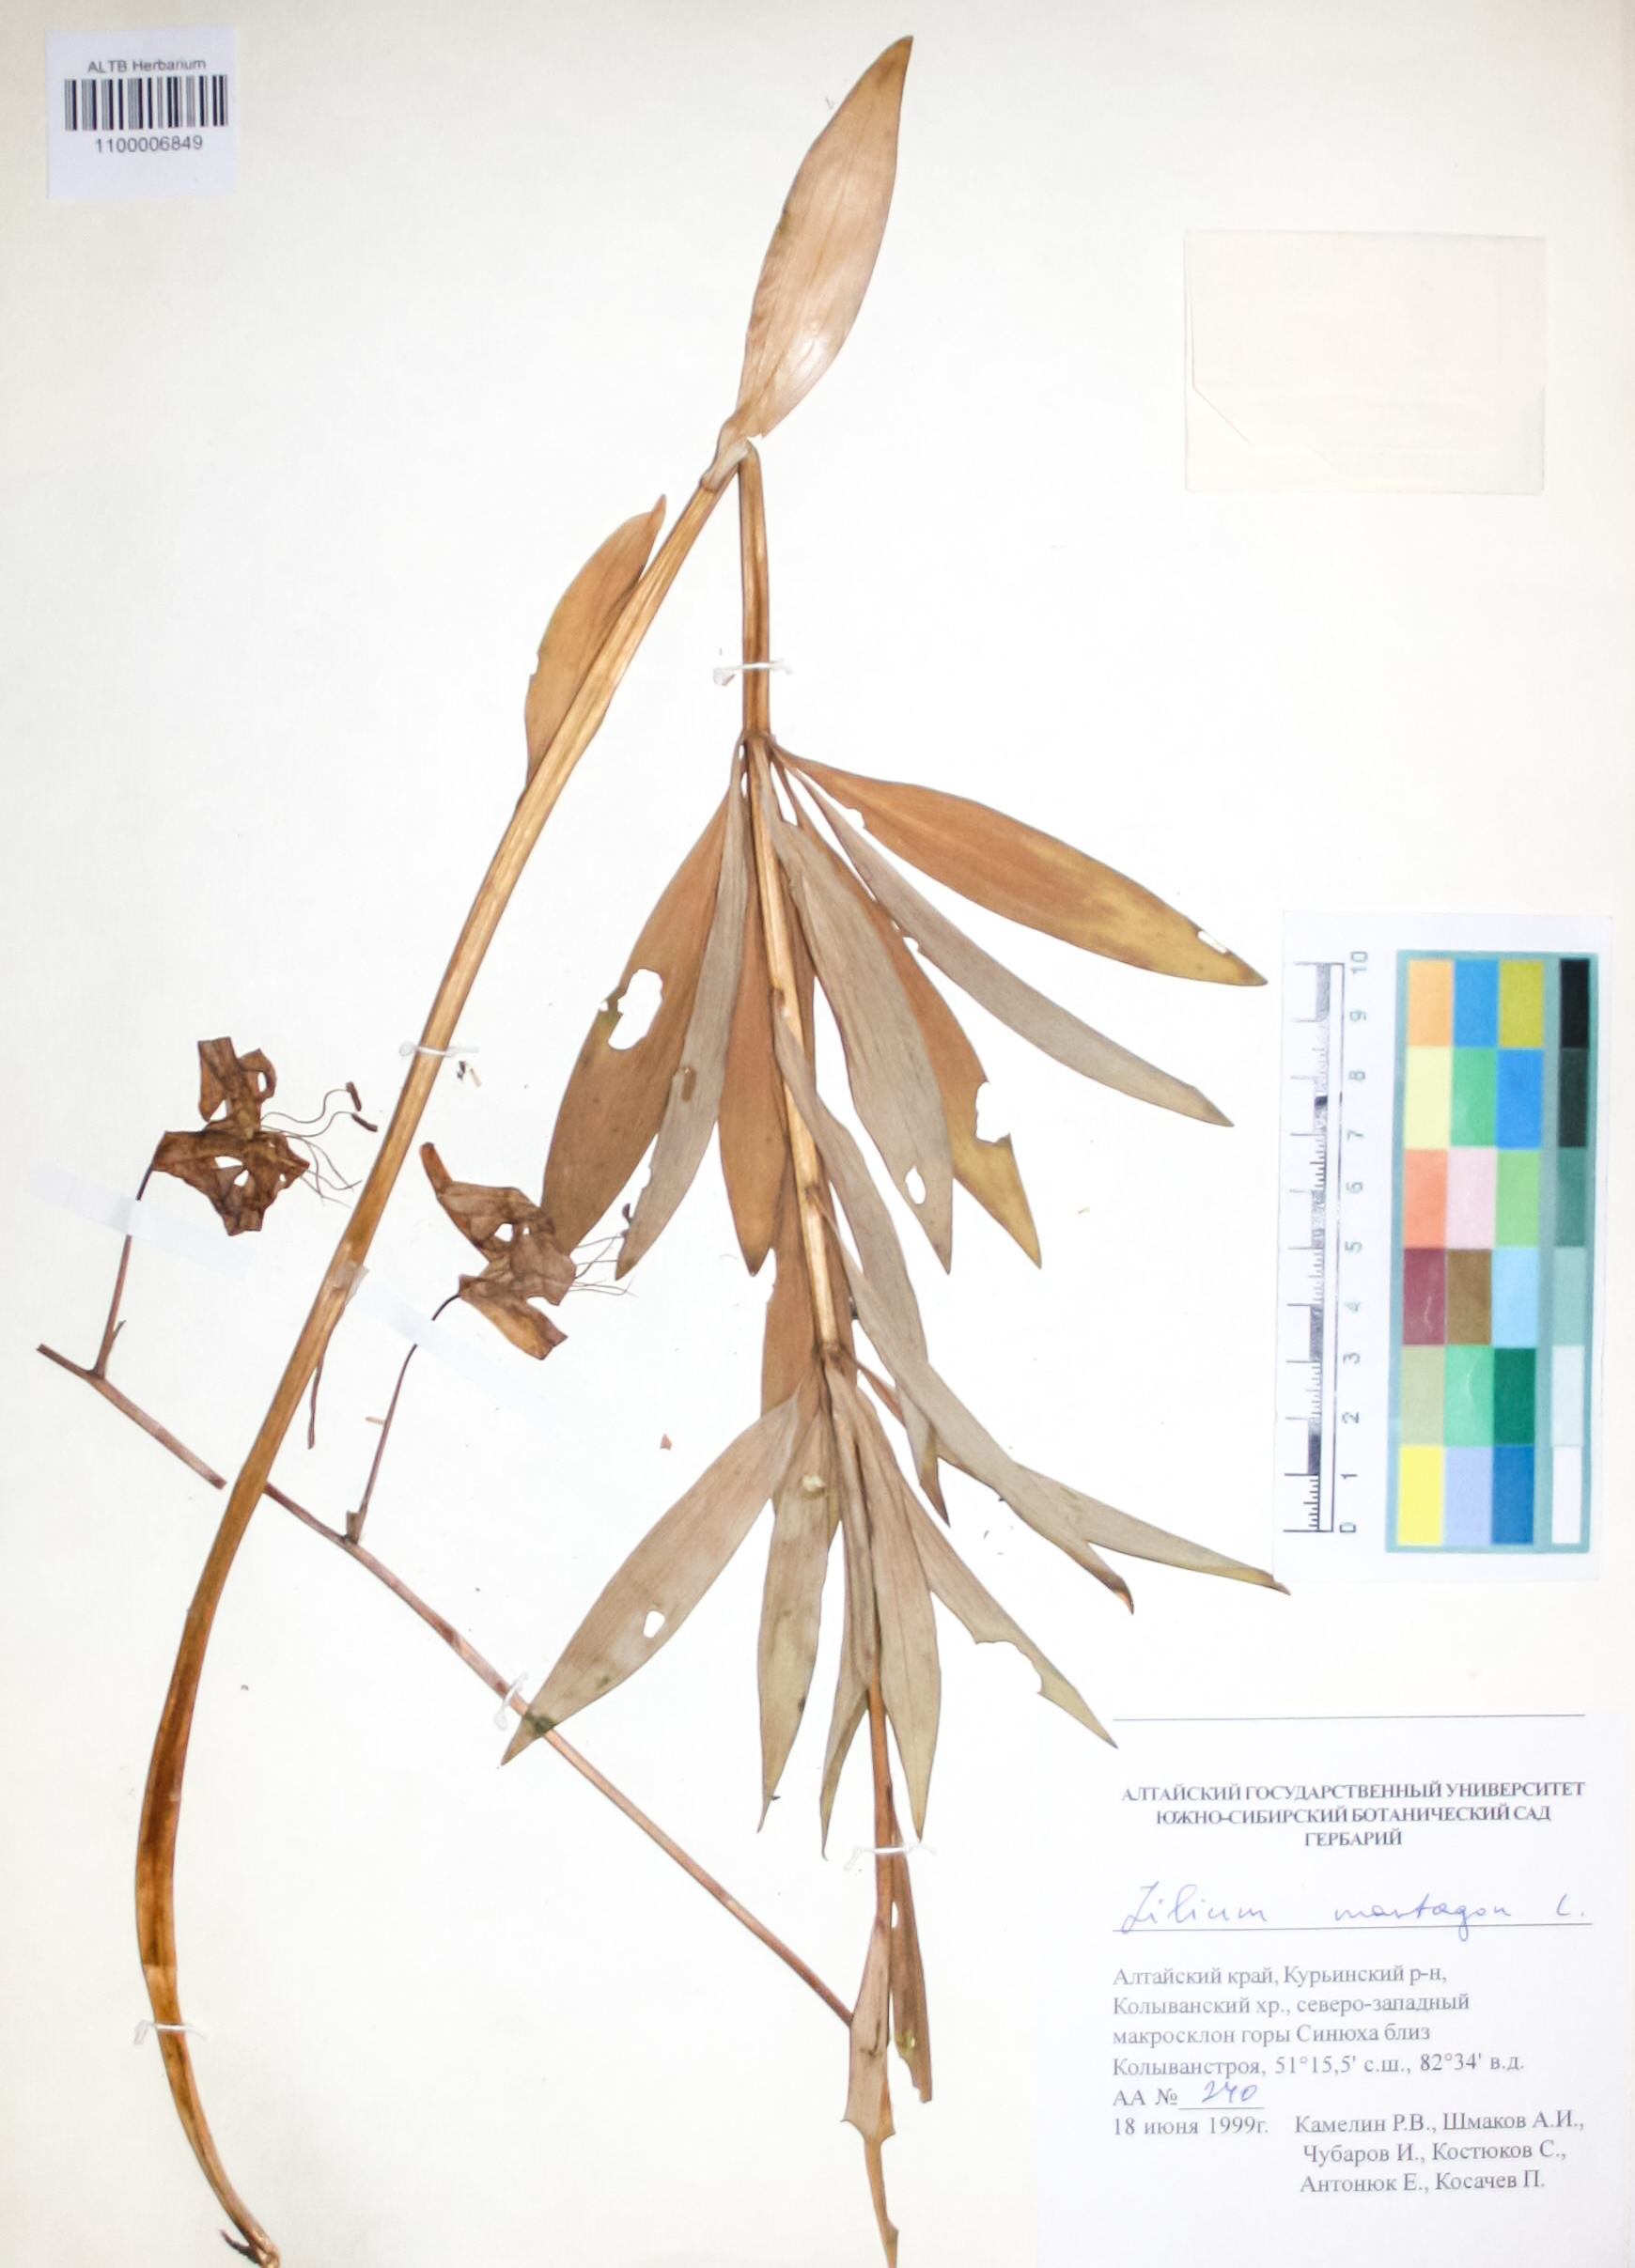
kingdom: Plantae
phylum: Tracheophyta
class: Liliopsida
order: Liliales
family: Liliaceae
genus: Lilium
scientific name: Lilium martagon
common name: Martagon lily
